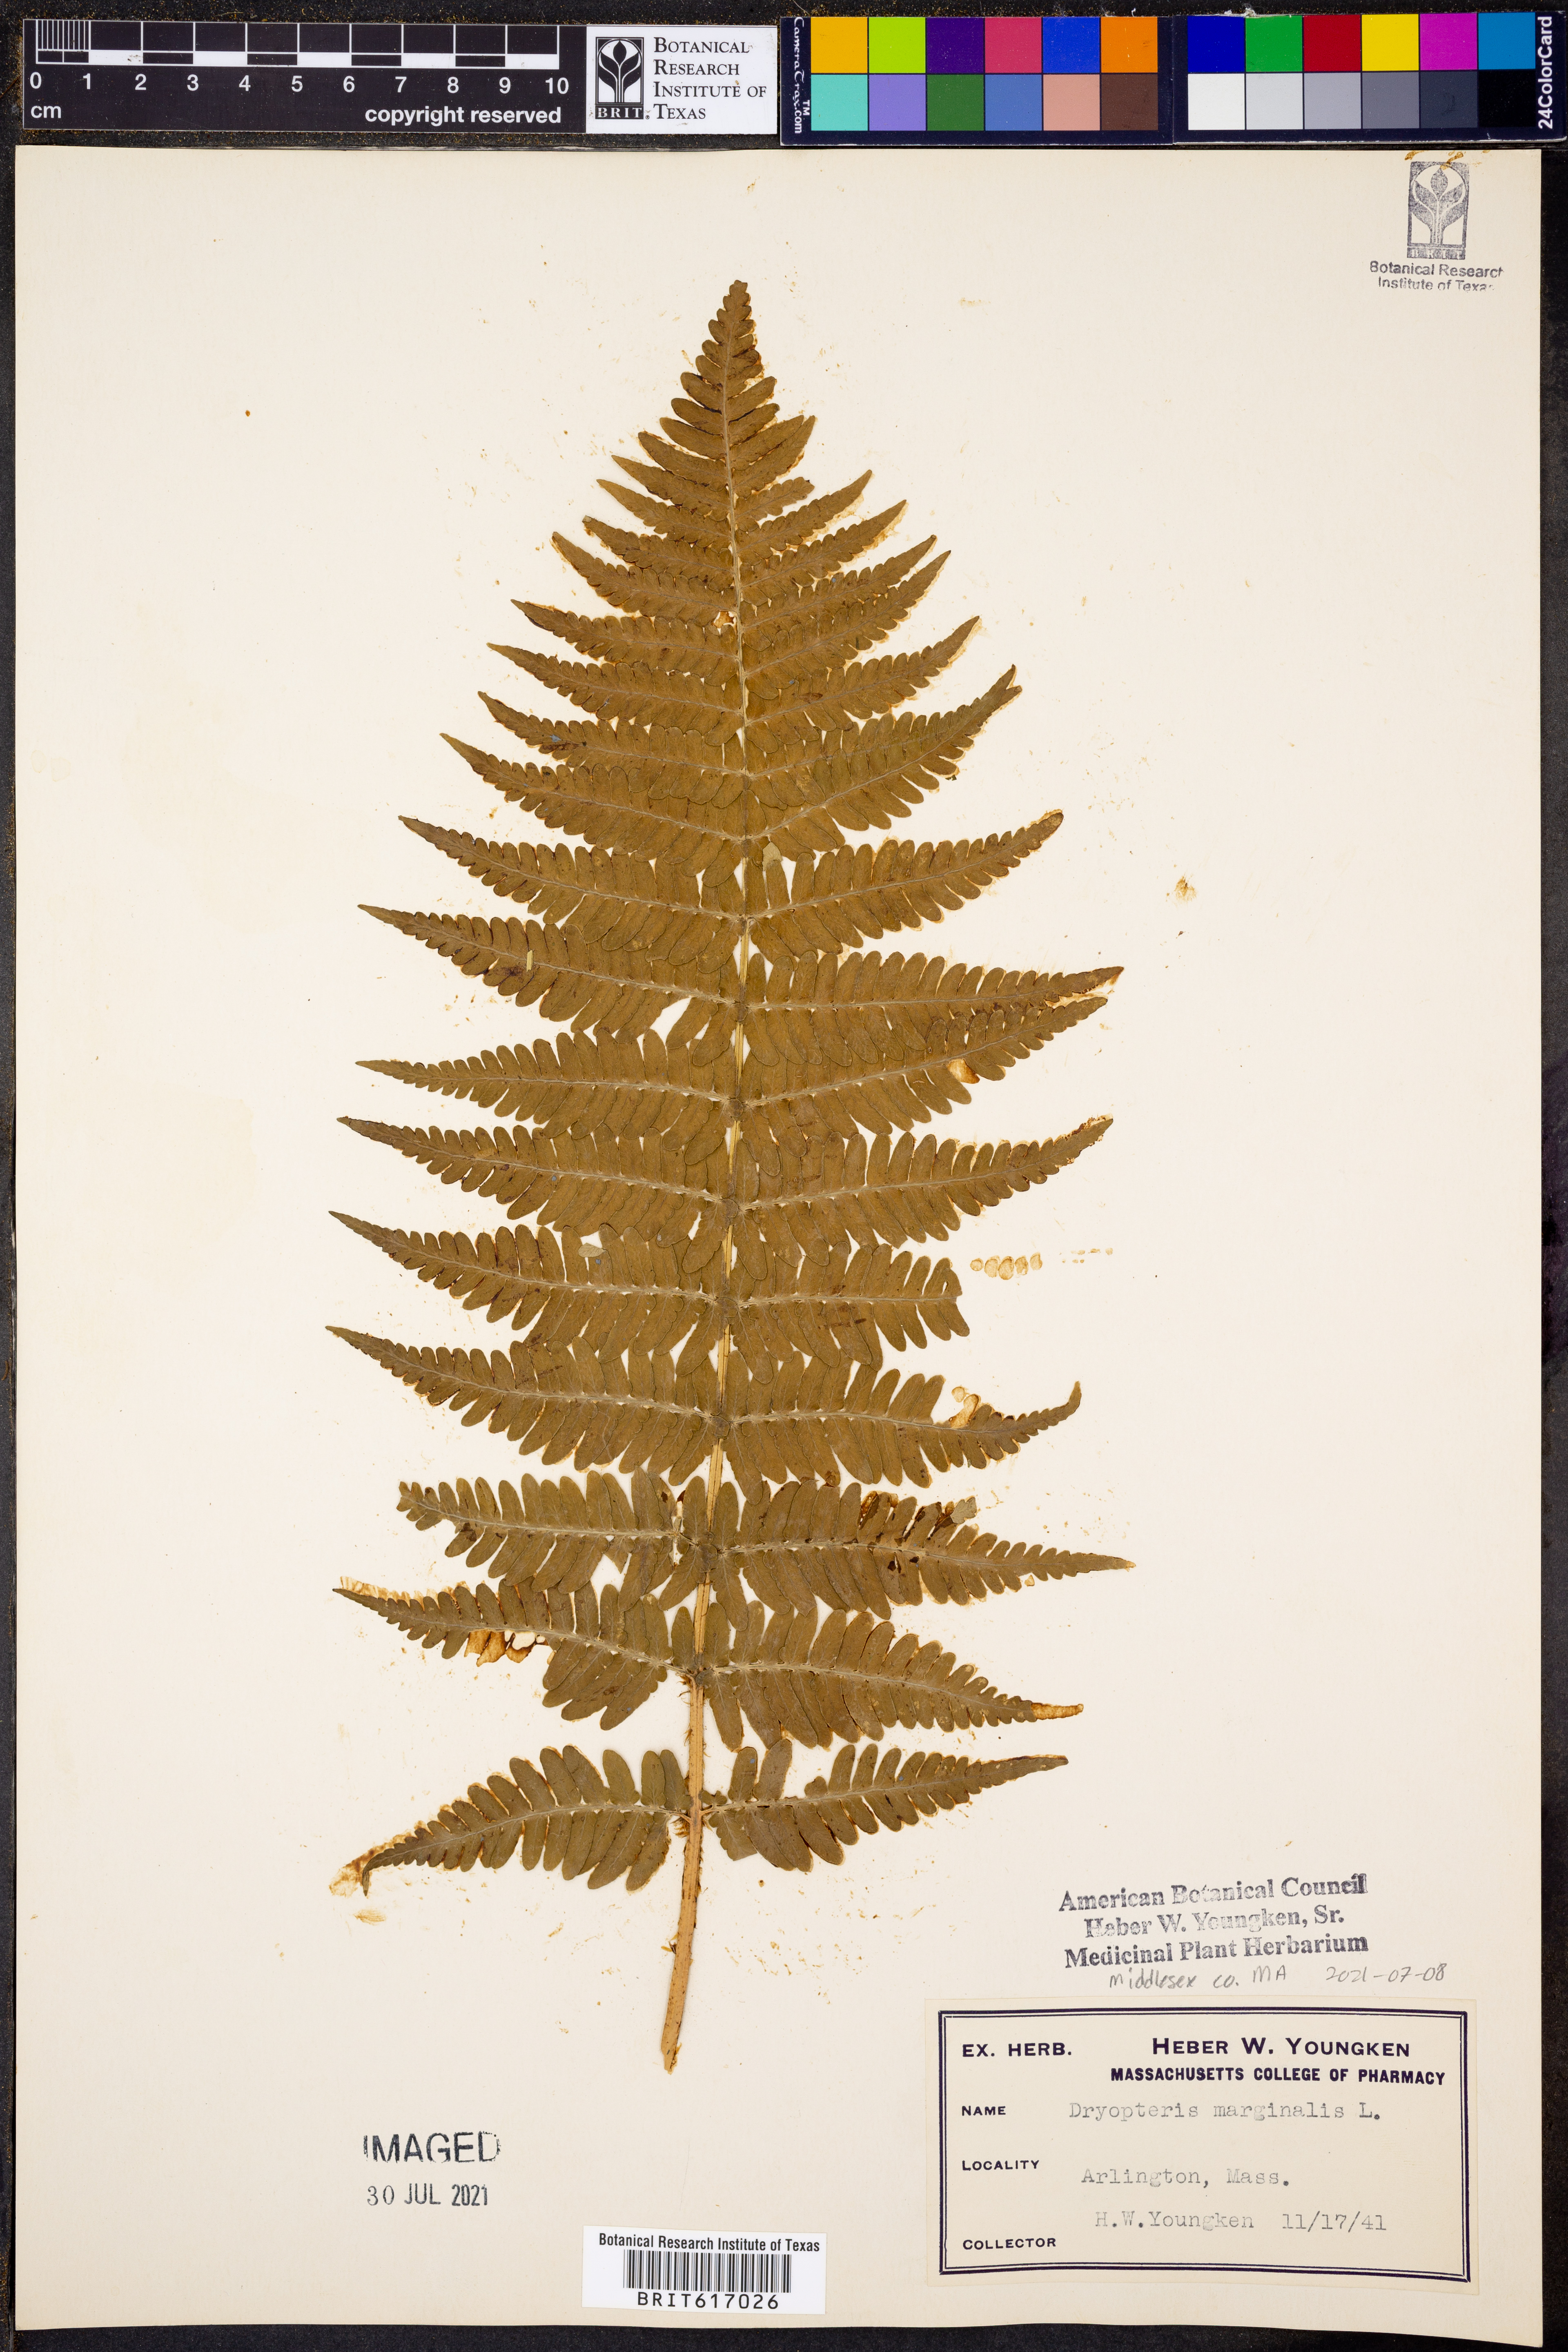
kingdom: Plantae
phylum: Tracheophyta
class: Polypodiopsida
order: Polypodiales
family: Dryopteridaceae
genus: Dryopteris
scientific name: Dryopteris marginalis
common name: Marginal wood fern
